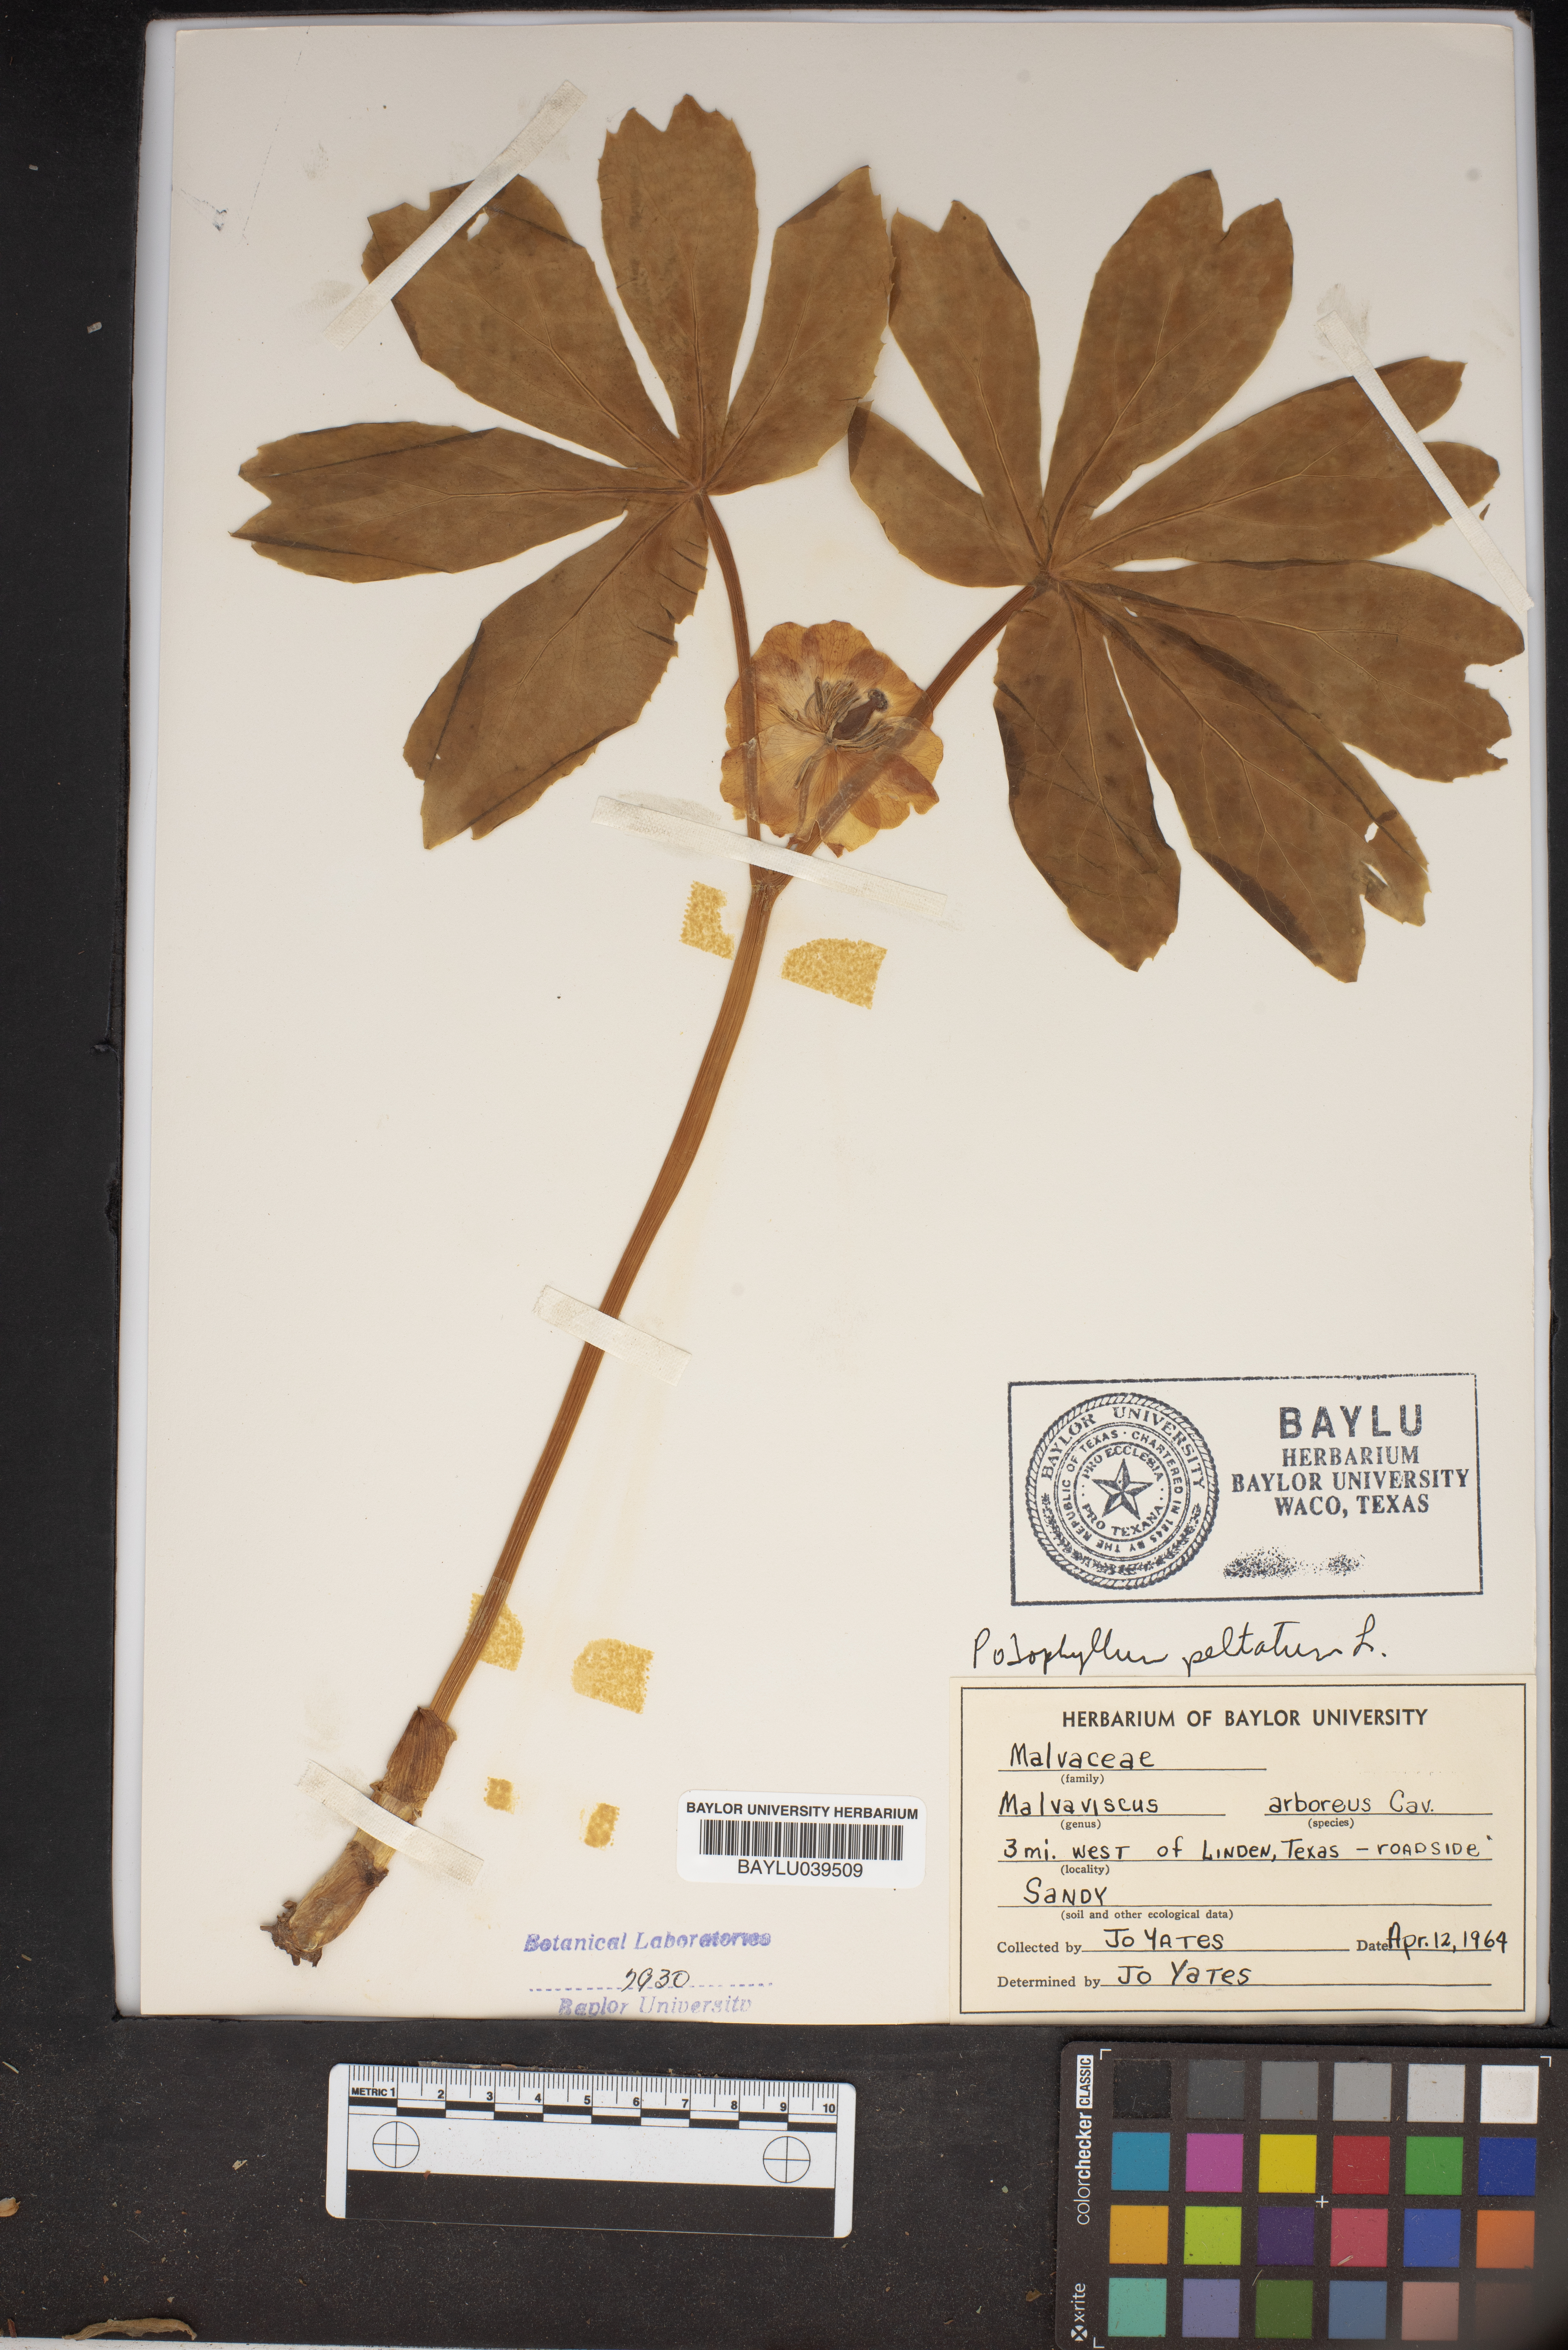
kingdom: Plantae
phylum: Tracheophyta
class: Magnoliopsida
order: Ranunculales
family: Berberidaceae
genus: Podophyllum
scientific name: Podophyllum peltatum
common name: Wild mandrake
